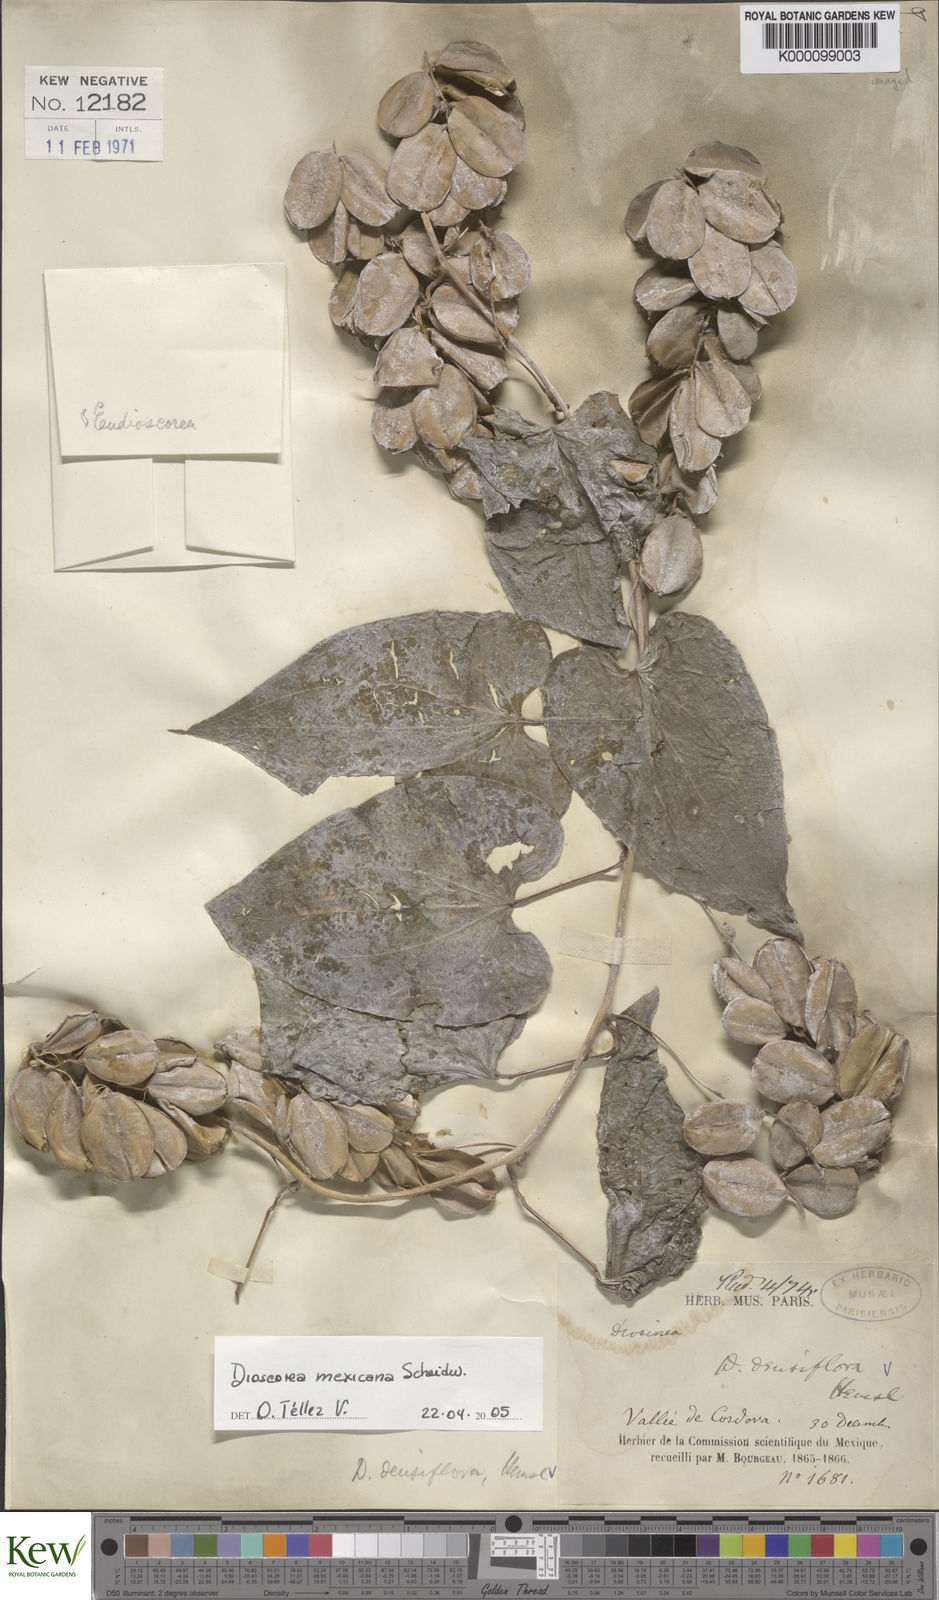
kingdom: Plantae
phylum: Tracheophyta
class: Liliopsida
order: Dioscoreales
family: Dioscoreaceae
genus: Dioscorea
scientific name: Dioscorea densiflora
